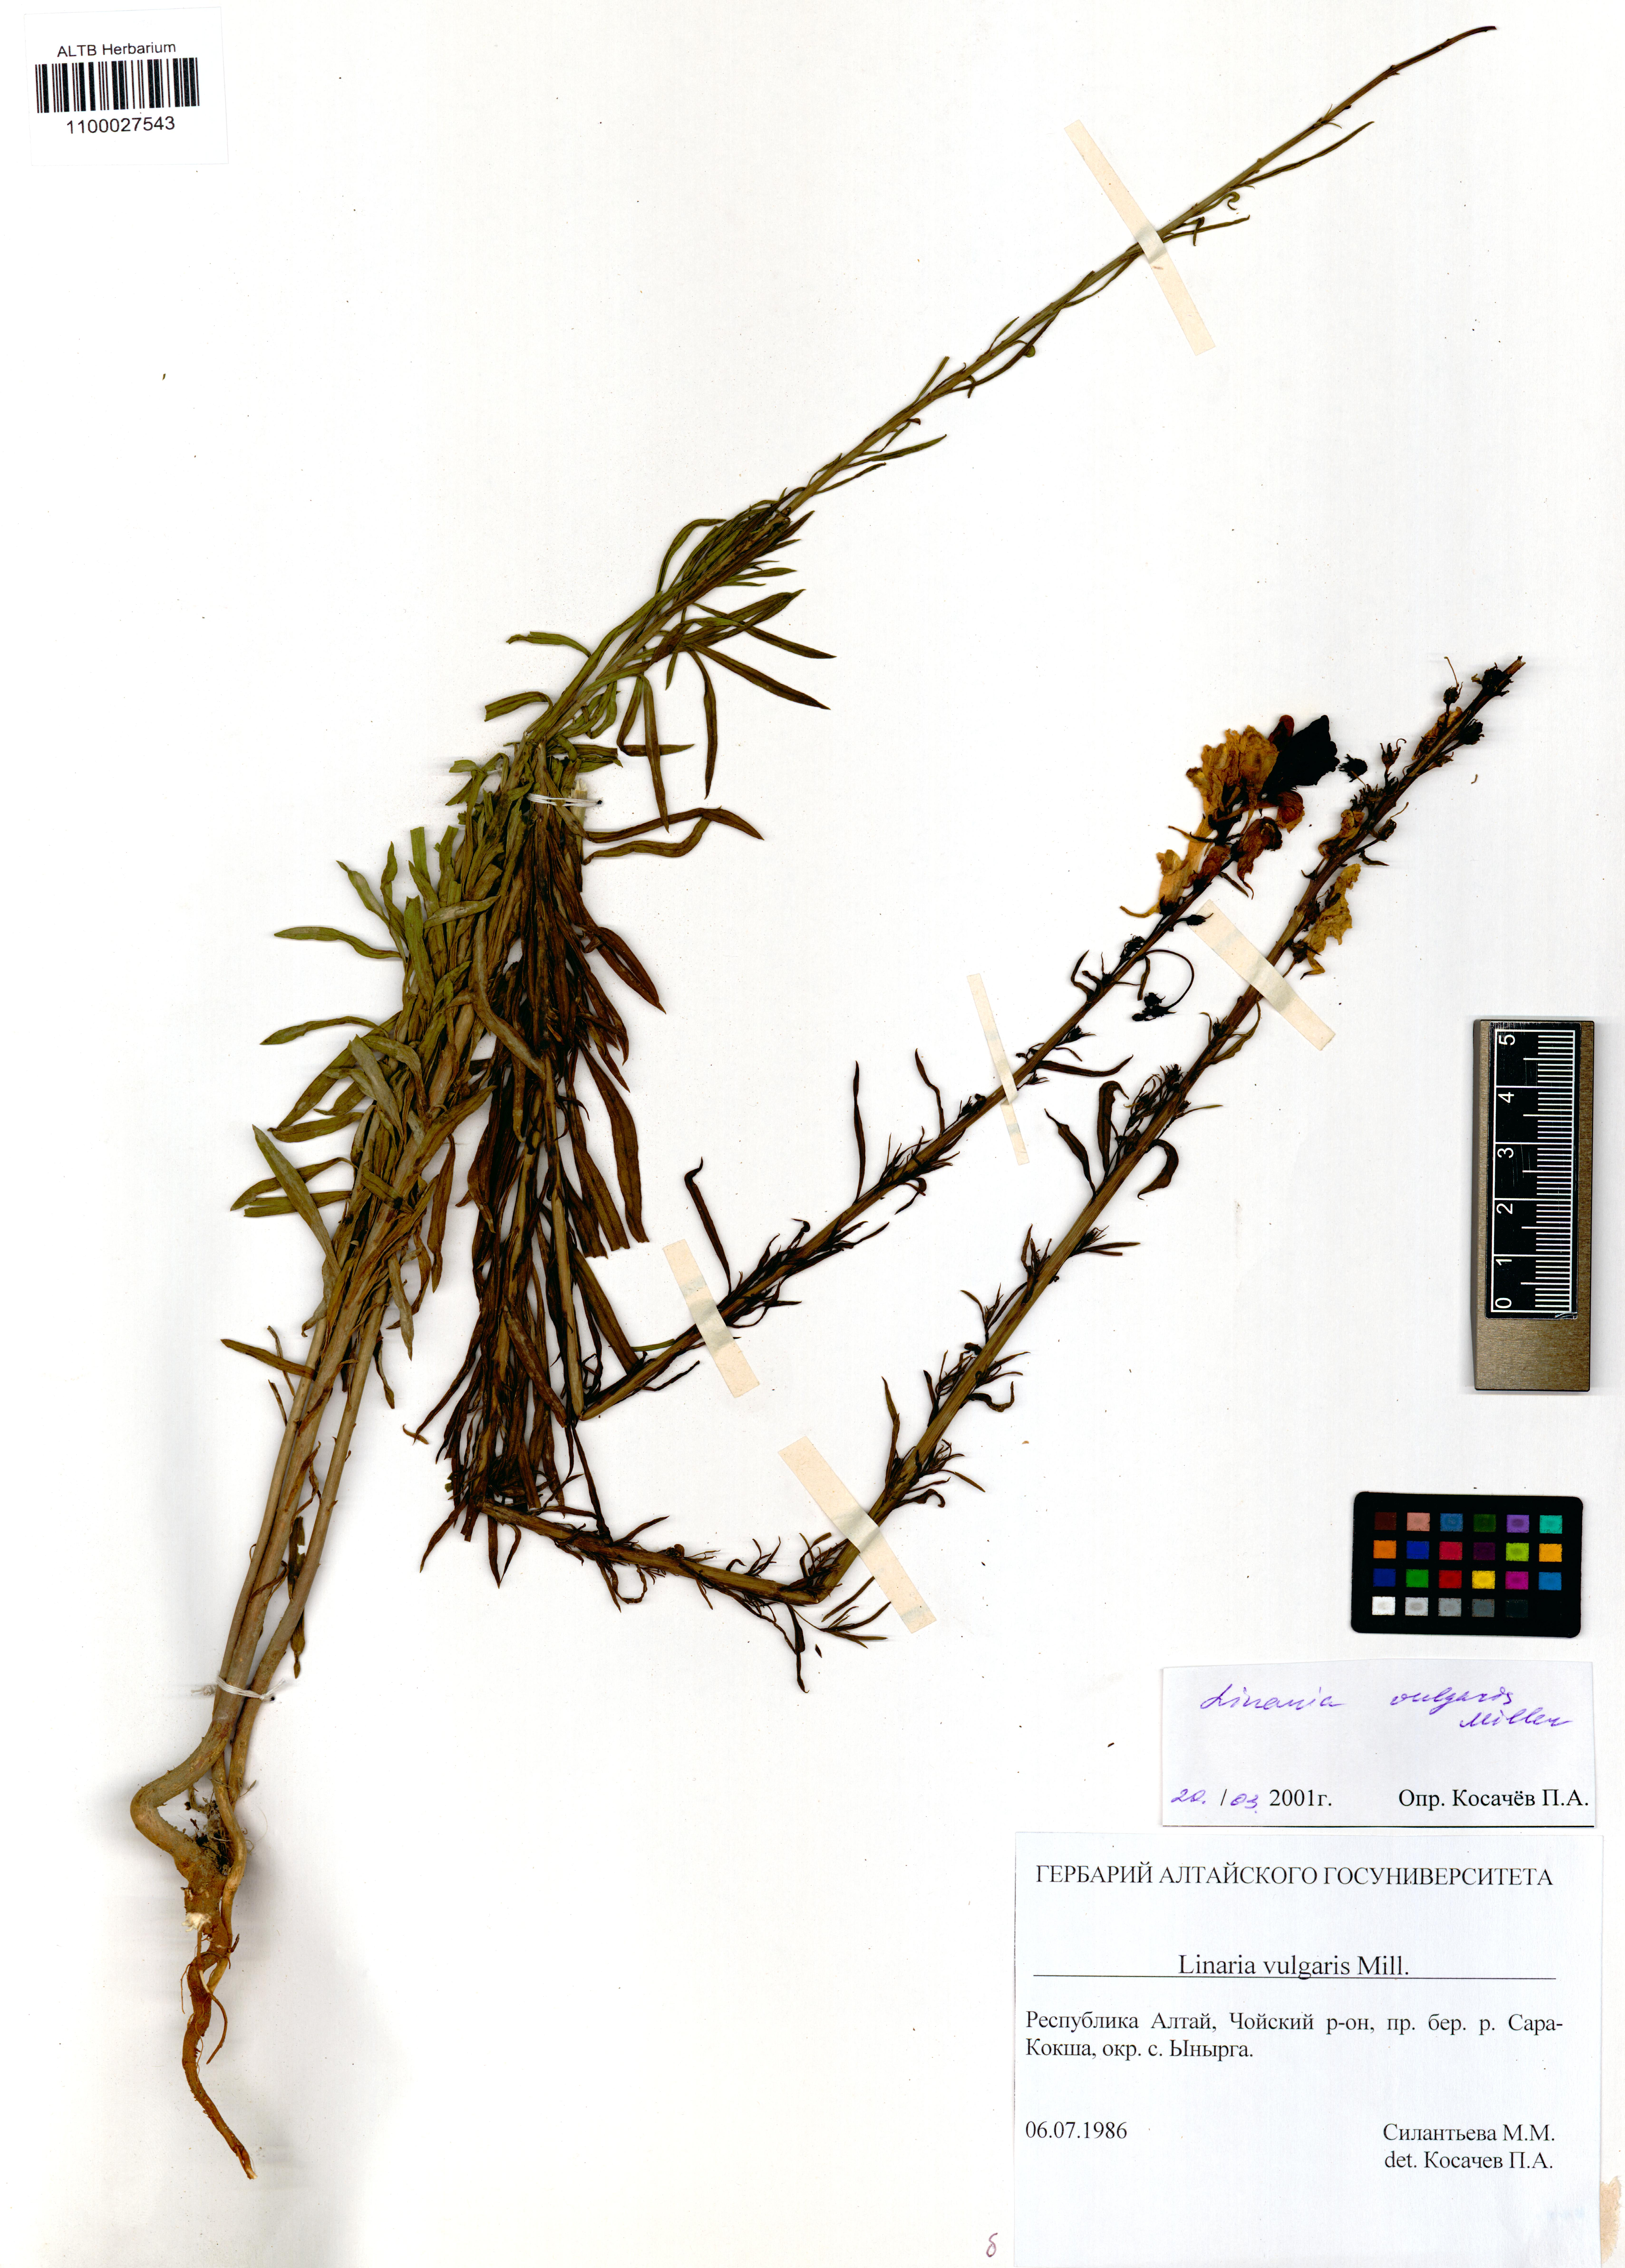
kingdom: Plantae
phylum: Tracheophyta
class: Magnoliopsida
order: Lamiales
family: Plantaginaceae
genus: Linaria
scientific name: Linaria vulgaris
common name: Butter and eggs
